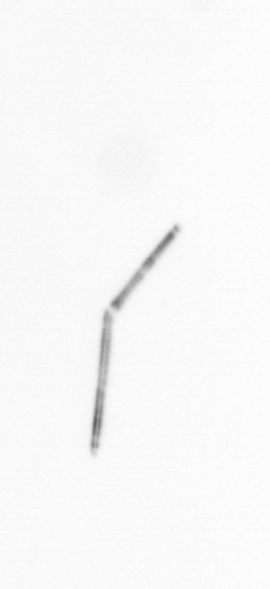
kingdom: Chromista
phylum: Ochrophyta
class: Bacillariophyceae
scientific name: Bacillariophyceae
